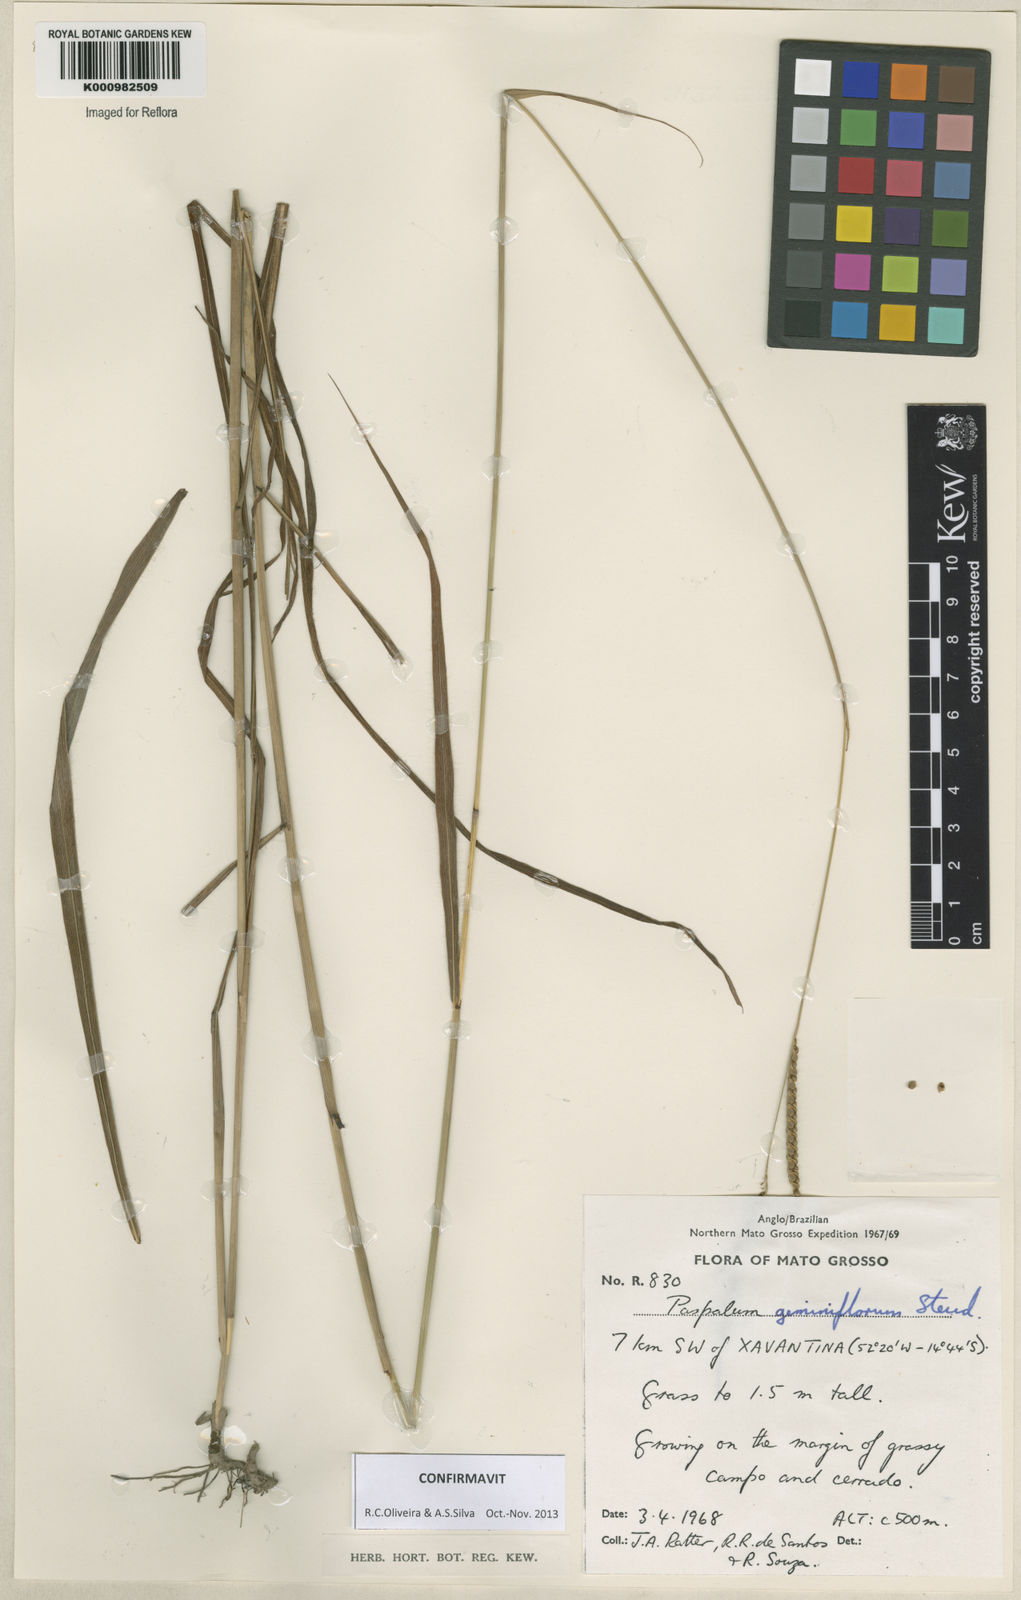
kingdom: Plantae
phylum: Tracheophyta
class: Liliopsida
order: Poales
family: Poaceae
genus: Paspalum
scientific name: Paspalum geminiflorum
